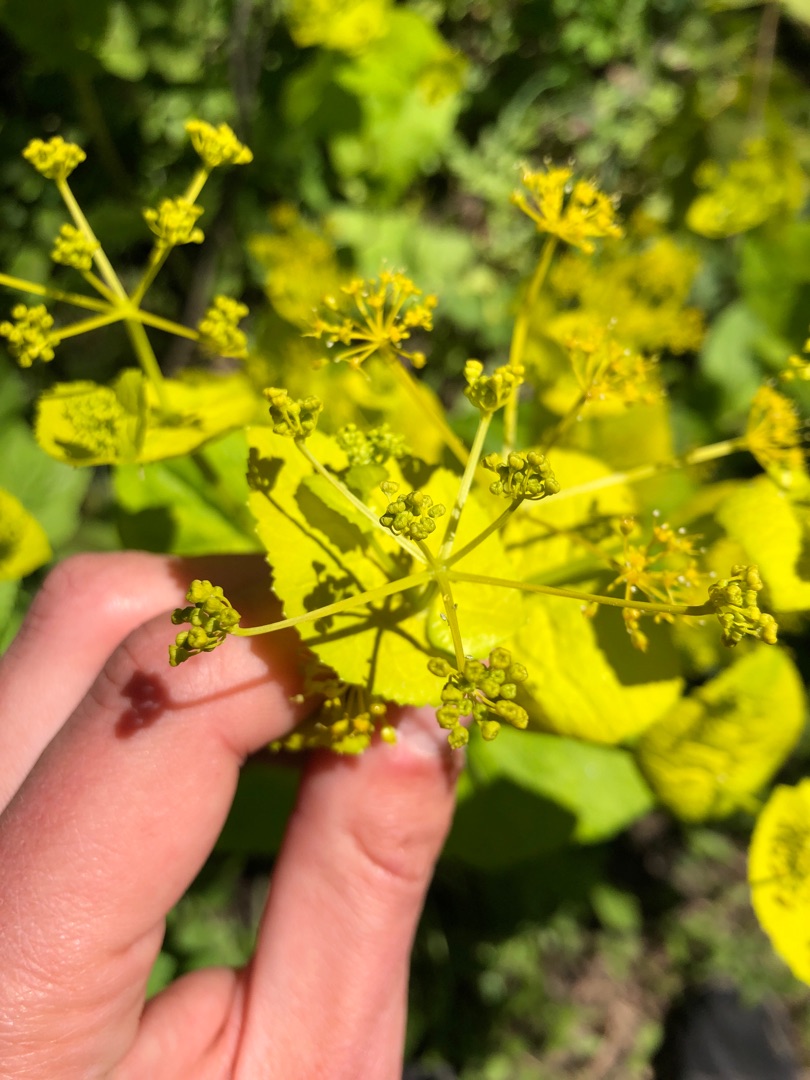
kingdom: Plantae
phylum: Tracheophyta
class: Magnoliopsida
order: Apiales
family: Apiaceae
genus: Smyrnium
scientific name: Smyrnium perfoliatum
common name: Lundgylden
